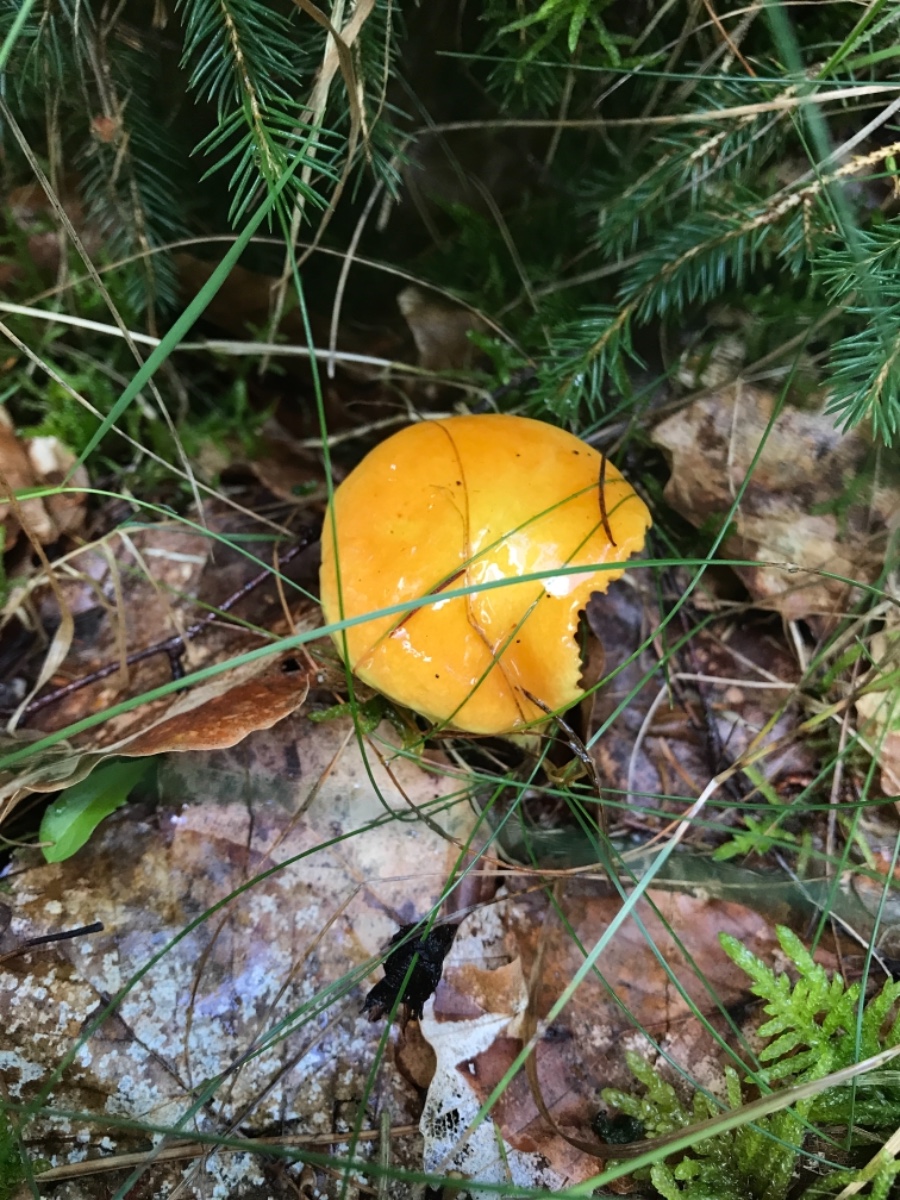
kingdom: Fungi
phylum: Basidiomycota
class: Agaricomycetes
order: Boletales
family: Suillaceae
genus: Suillus
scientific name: Suillus grevillei
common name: lærke-slimrørhat
